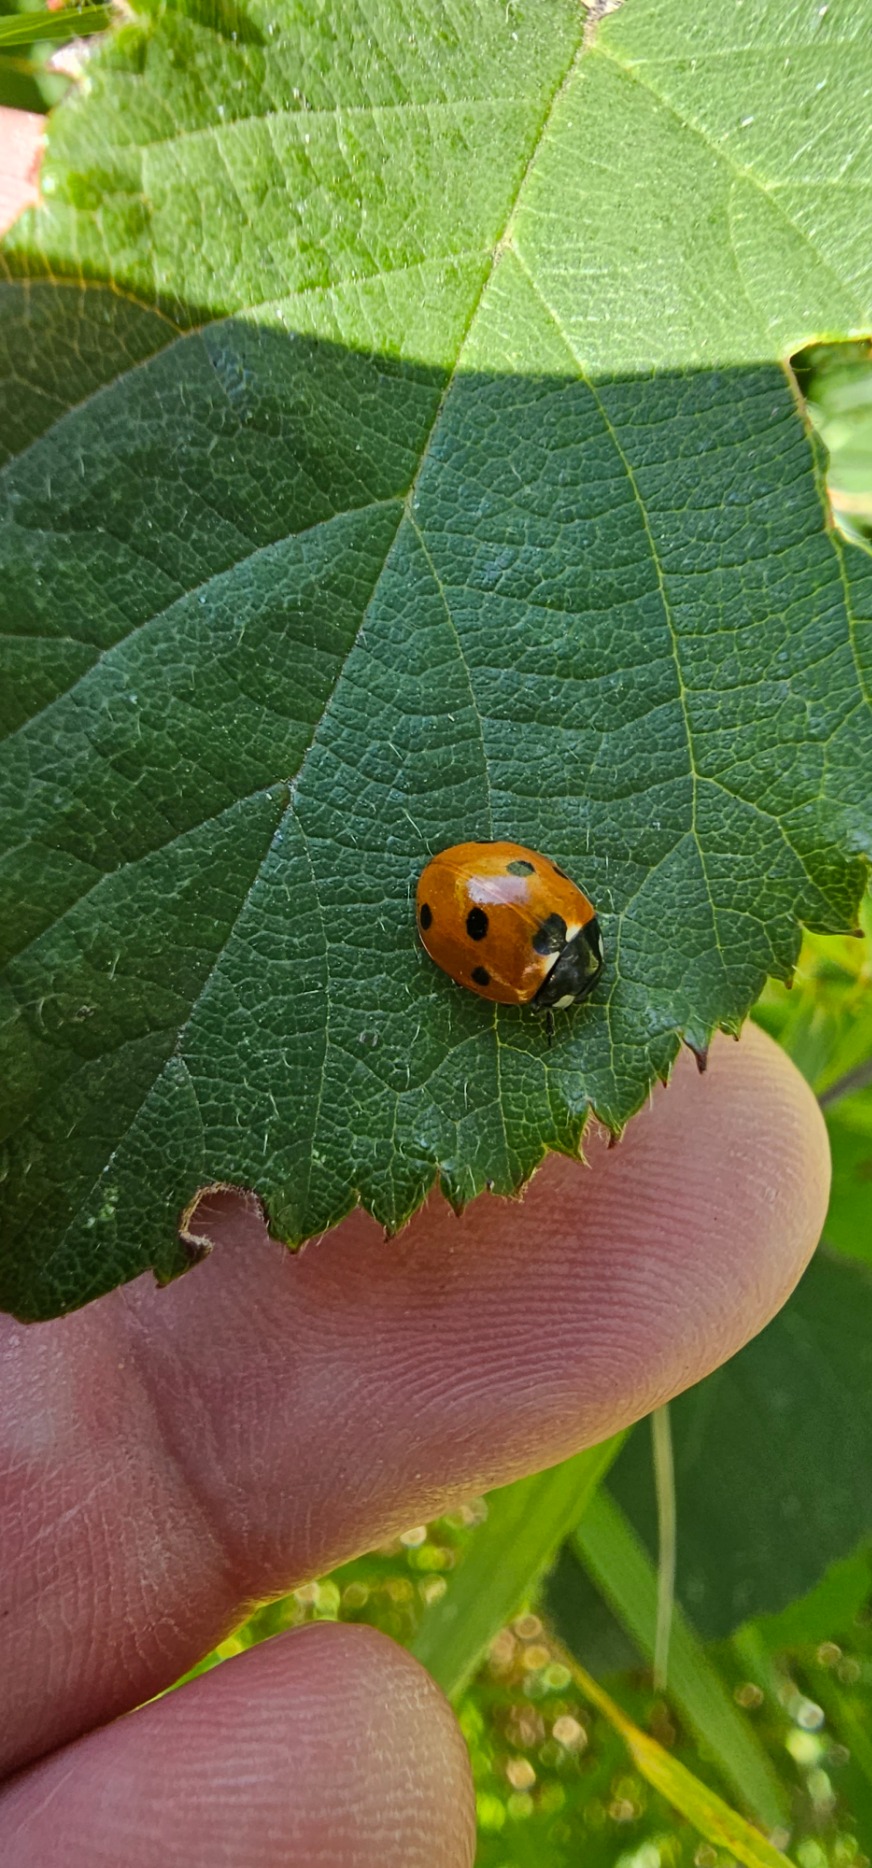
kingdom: Animalia
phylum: Arthropoda
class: Insecta
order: Coleoptera
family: Coccinellidae
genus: Coccinella
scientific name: Coccinella septempunctata
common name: Syvplettet mariehøne
